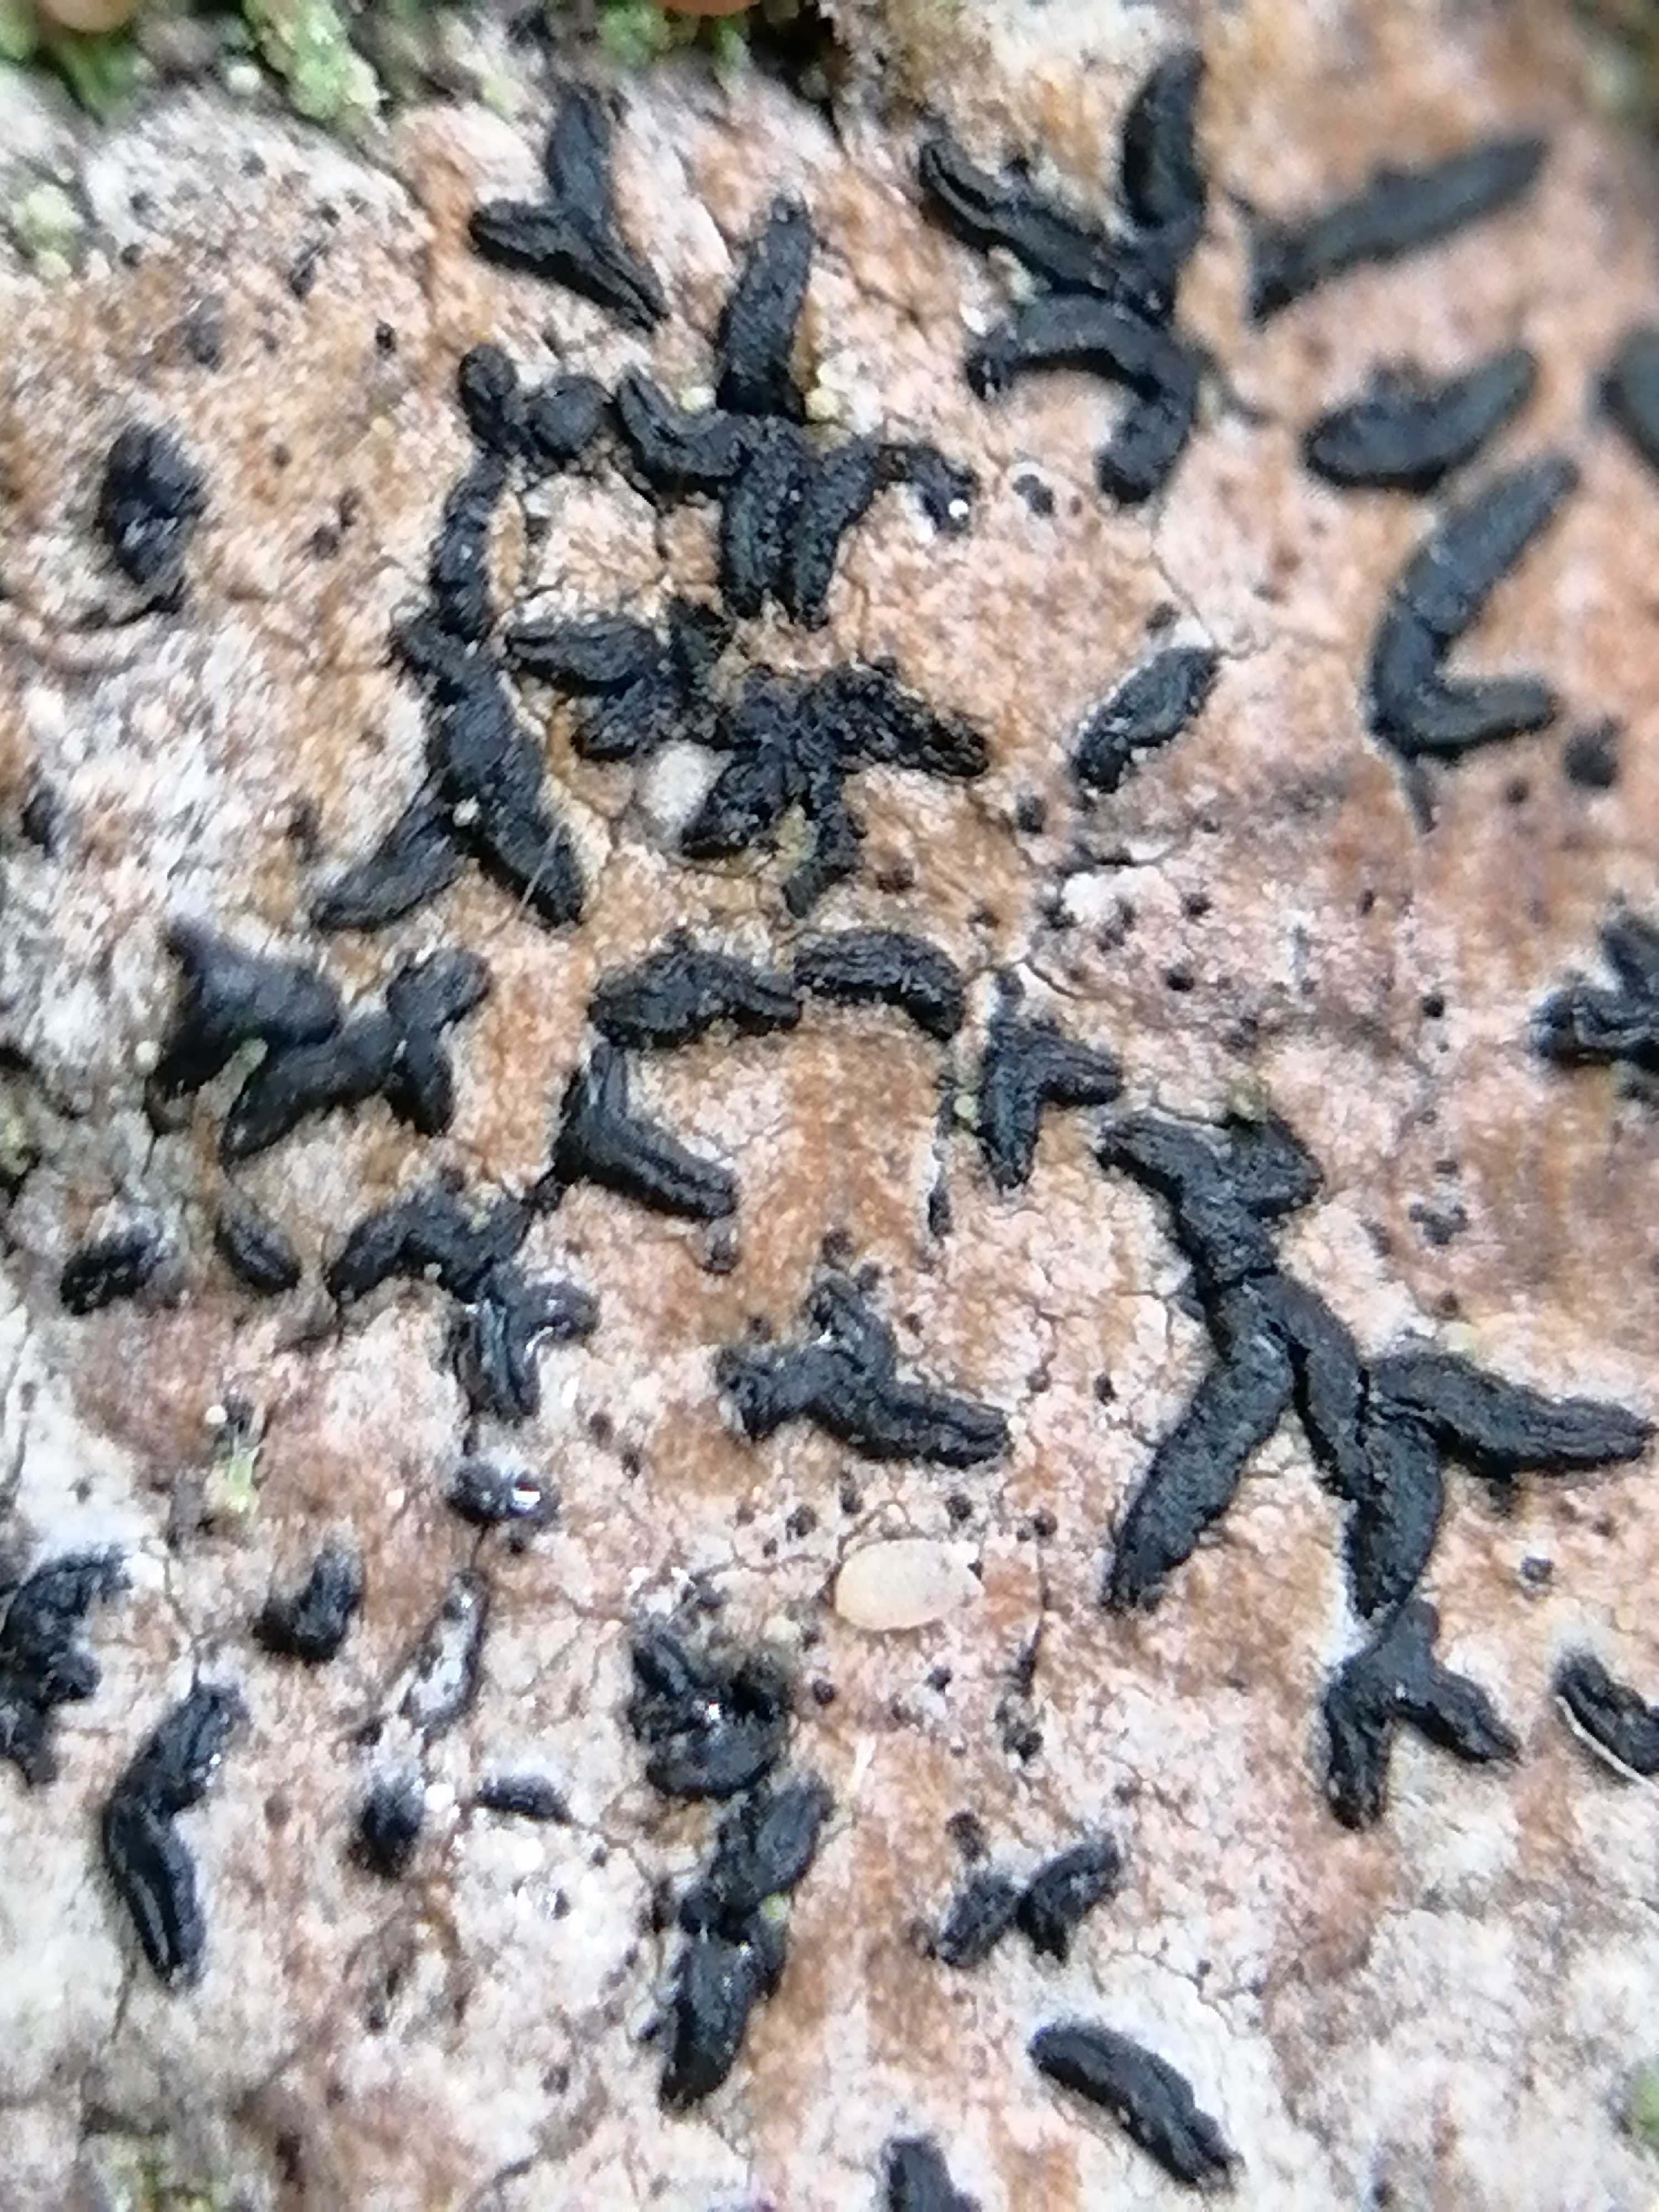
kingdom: Fungi
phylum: Ascomycota
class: Dothideomycetes
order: Hysteriales
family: Hysteriaceae
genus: Hysterium
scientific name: Hysterium
